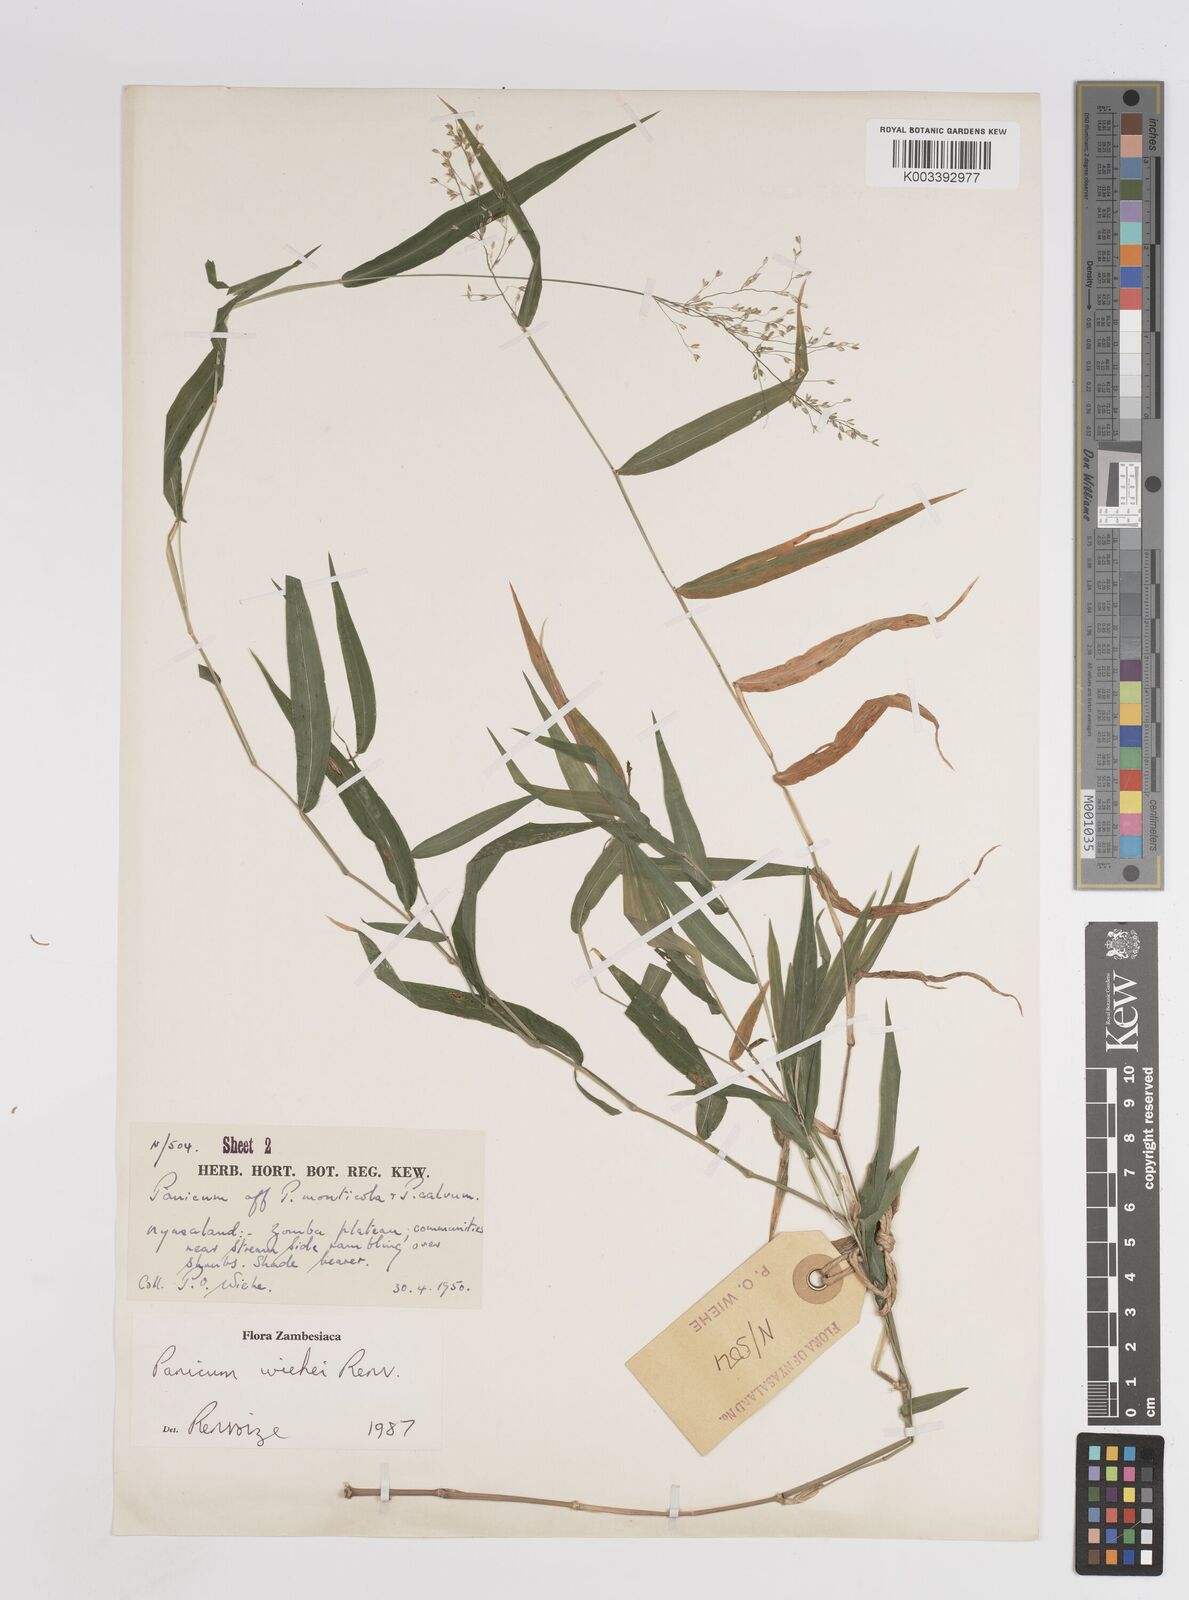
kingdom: Plantae
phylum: Tracheophyta
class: Liliopsida
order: Poales
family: Poaceae
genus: Panicum
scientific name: Panicum wiehei
